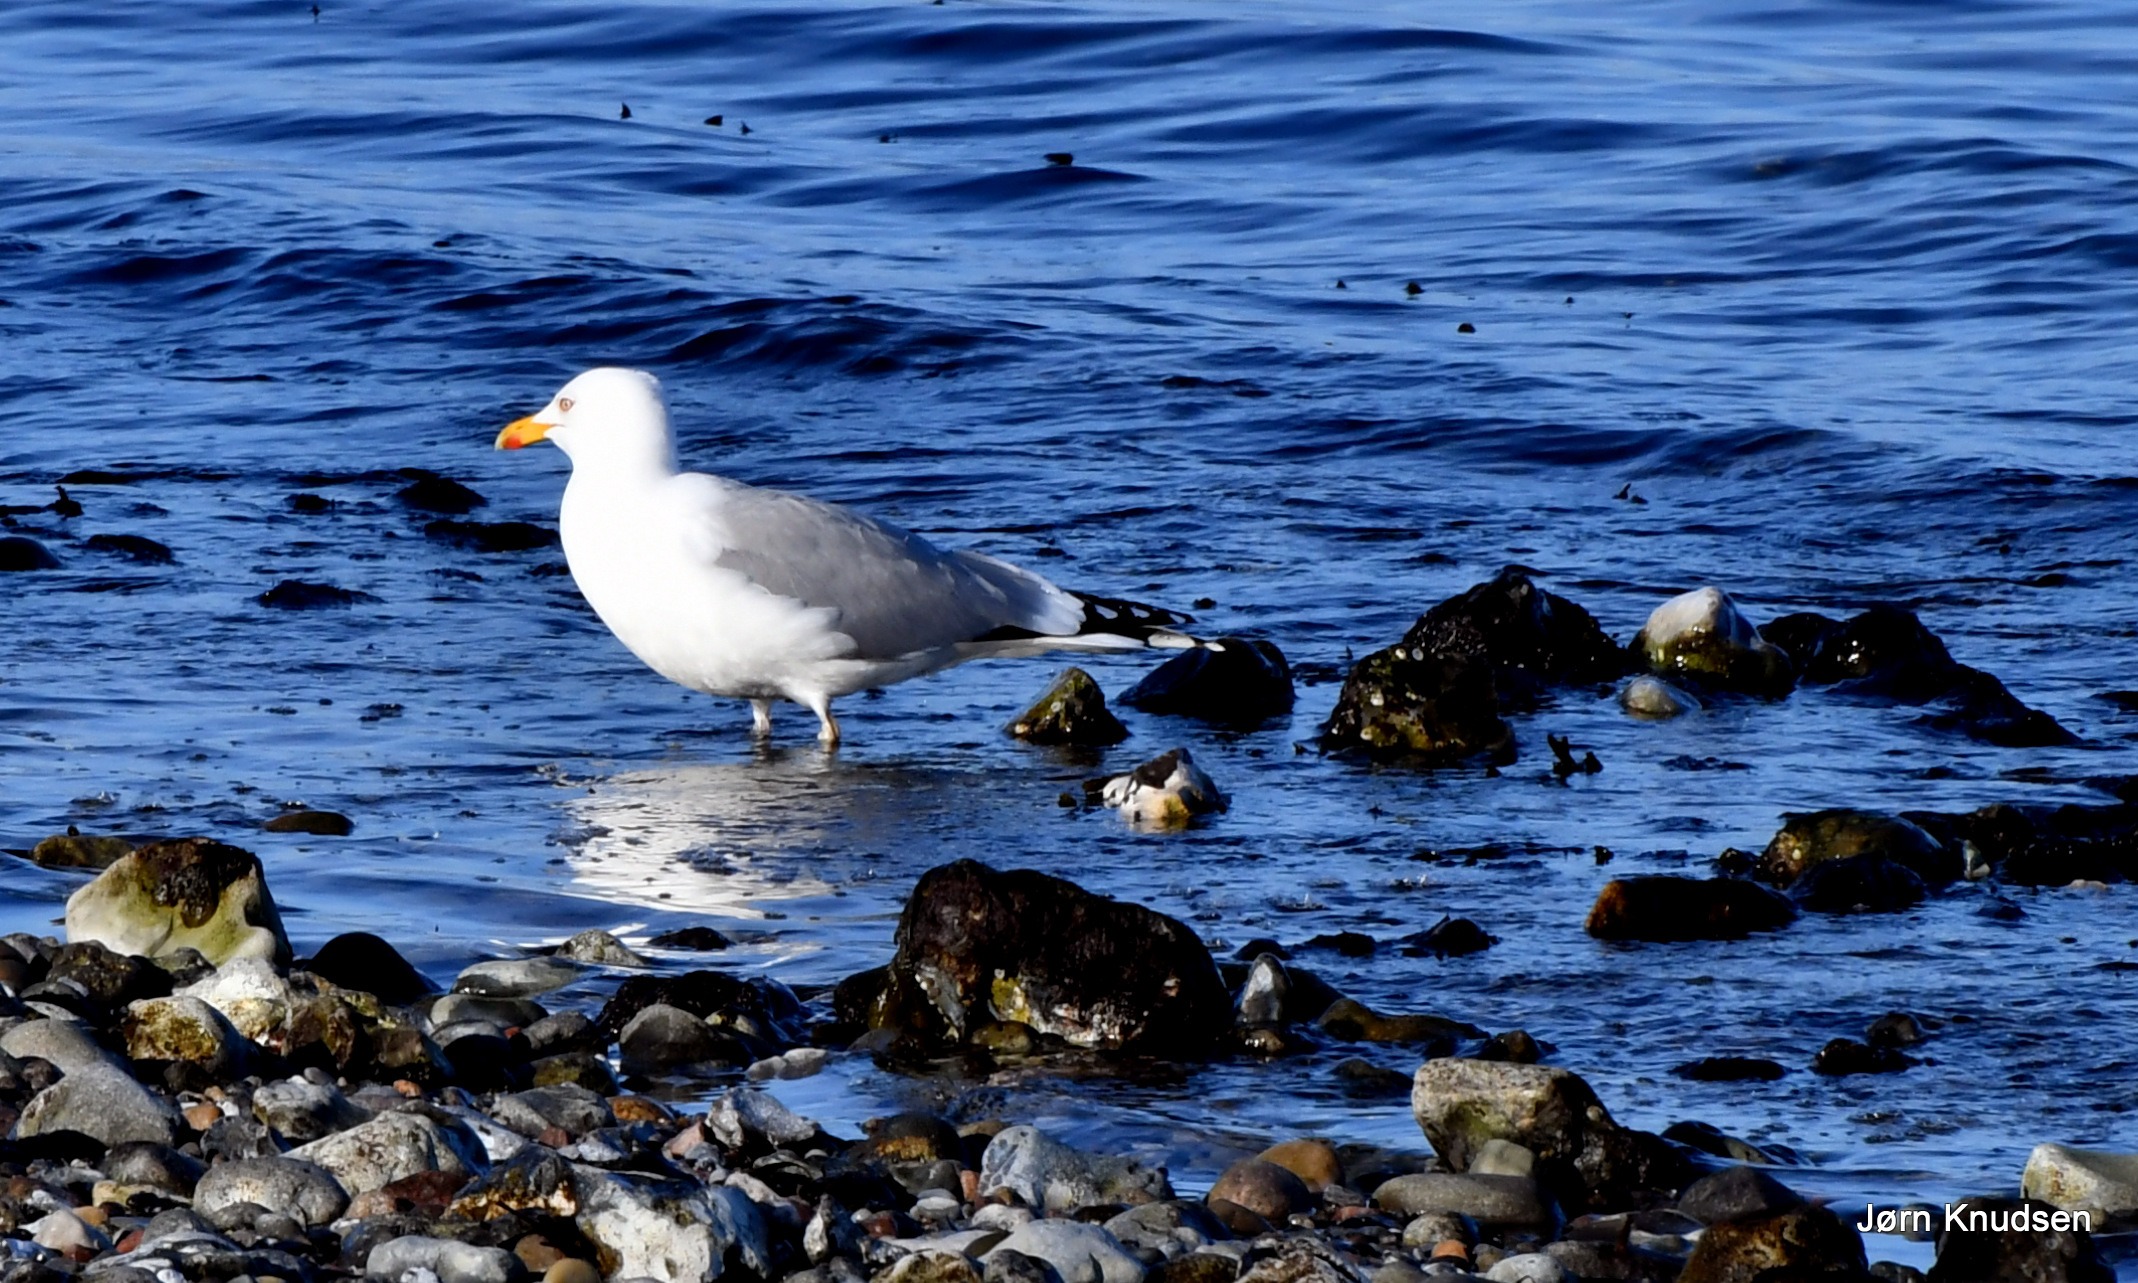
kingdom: Animalia
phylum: Chordata
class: Aves
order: Charadriiformes
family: Laridae
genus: Larus
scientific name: Larus argentatus
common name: Sølvmåge
